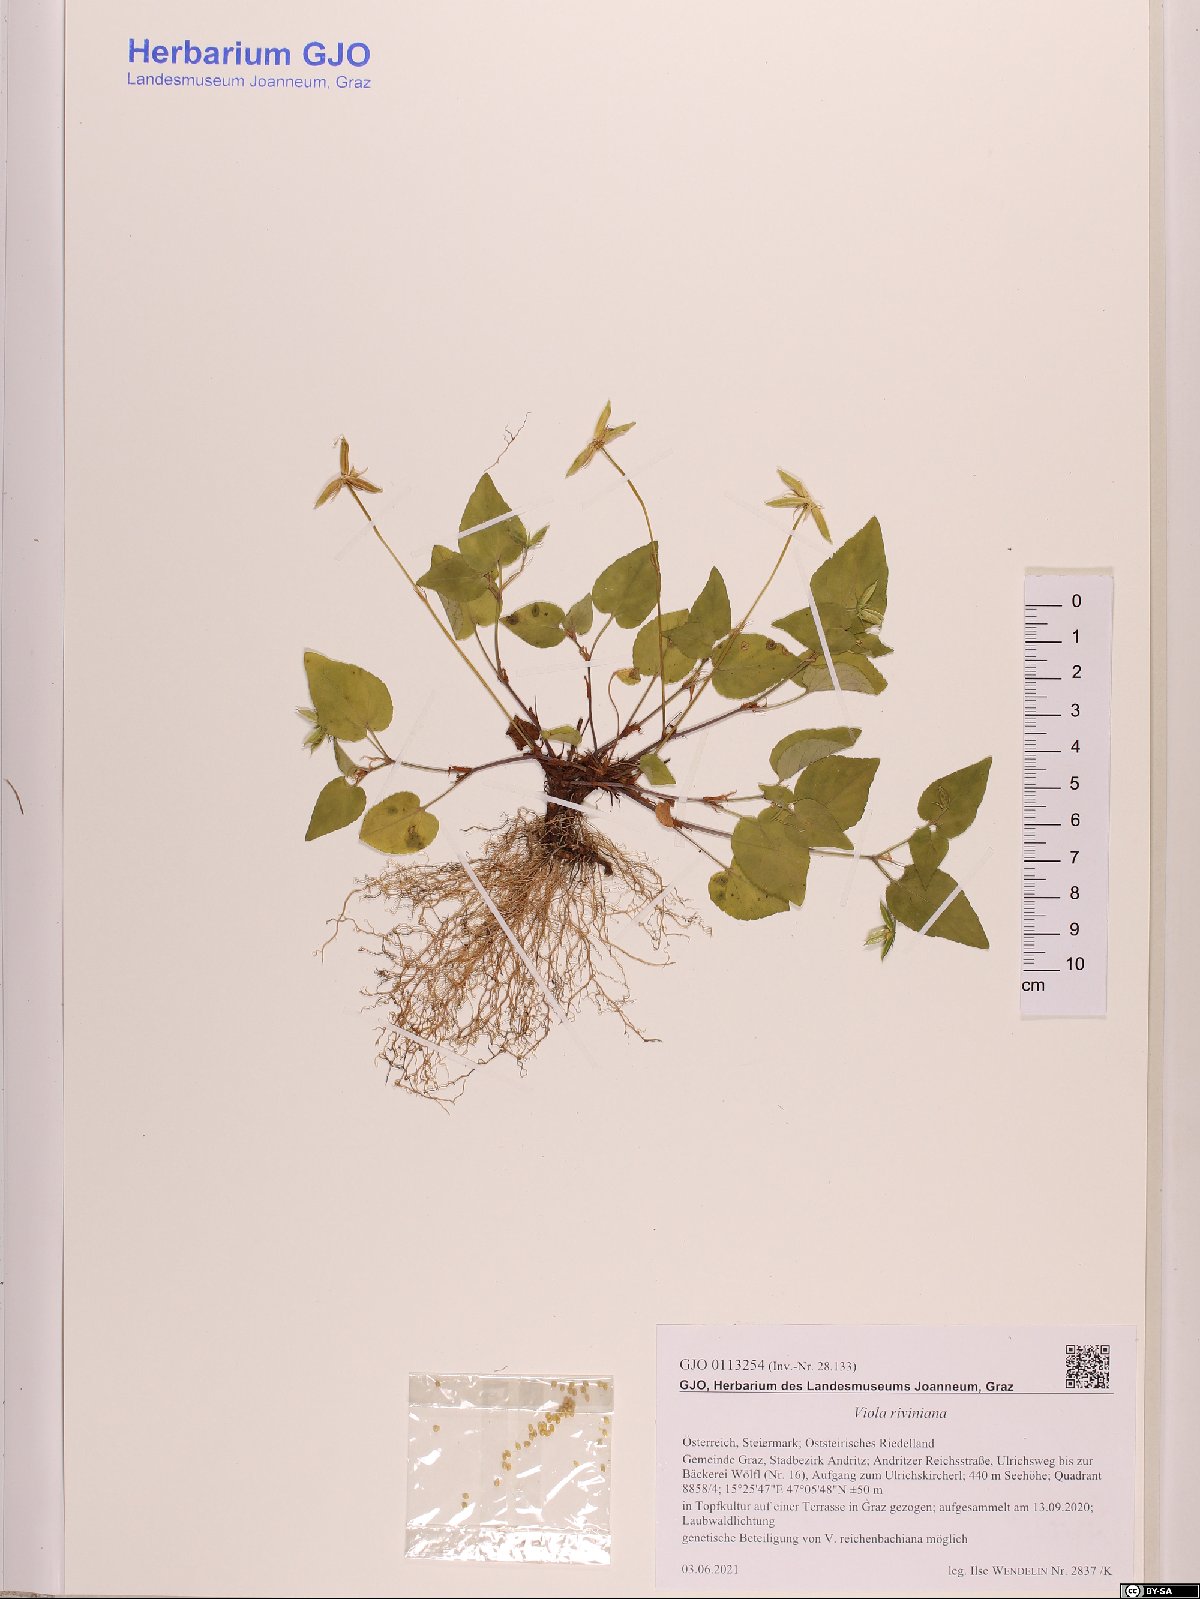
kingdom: Plantae
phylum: Tracheophyta
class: Magnoliopsida
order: Malpighiales
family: Violaceae
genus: Viola
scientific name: Viola riviniana
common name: Common dog-violet
